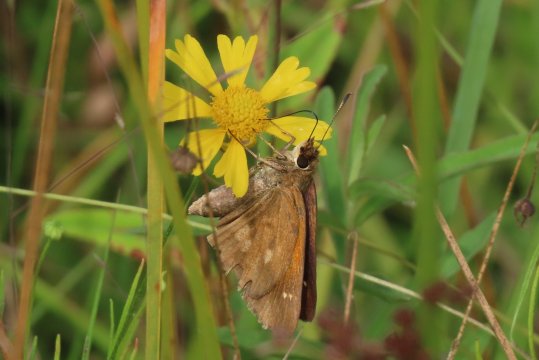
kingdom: Animalia
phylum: Arthropoda
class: Insecta
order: Lepidoptera
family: Hesperiidae
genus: Poanes
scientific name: Poanes viator
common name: Broad-winged Skipper
